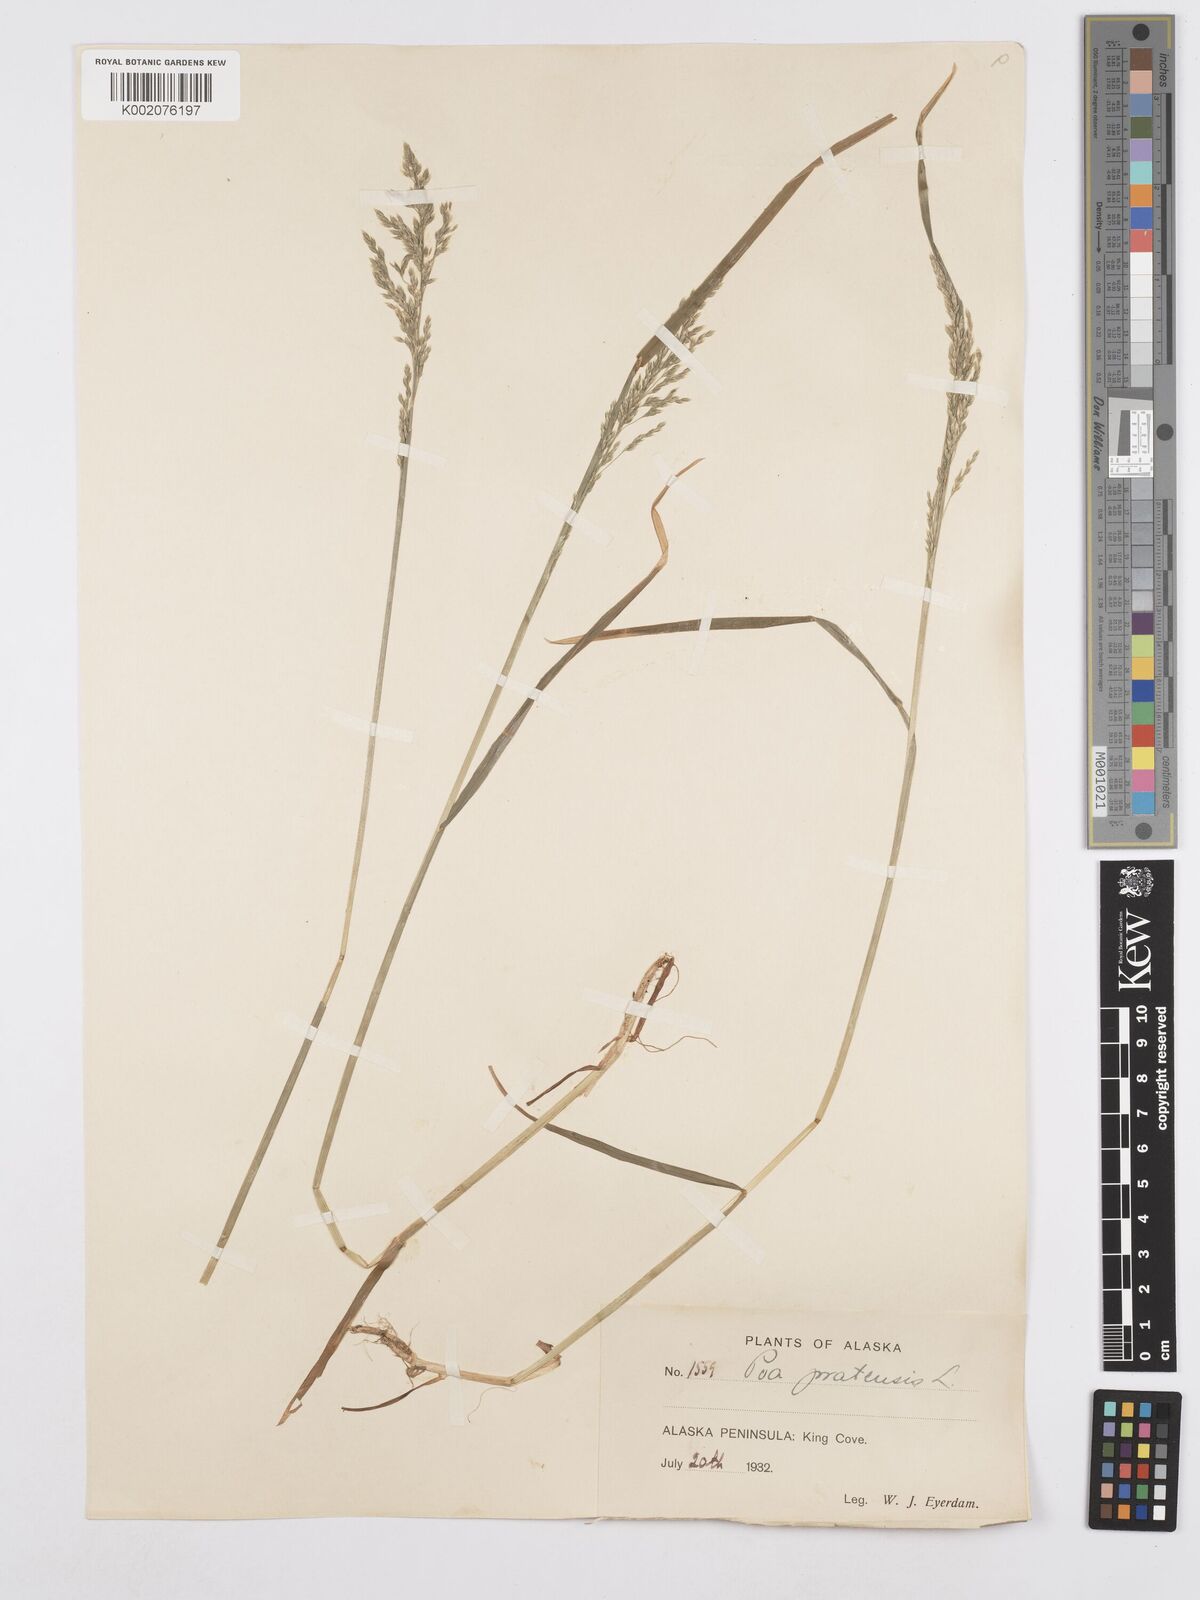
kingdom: Plantae
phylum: Tracheophyta
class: Liliopsida
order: Poales
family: Poaceae
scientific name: Poaceae
